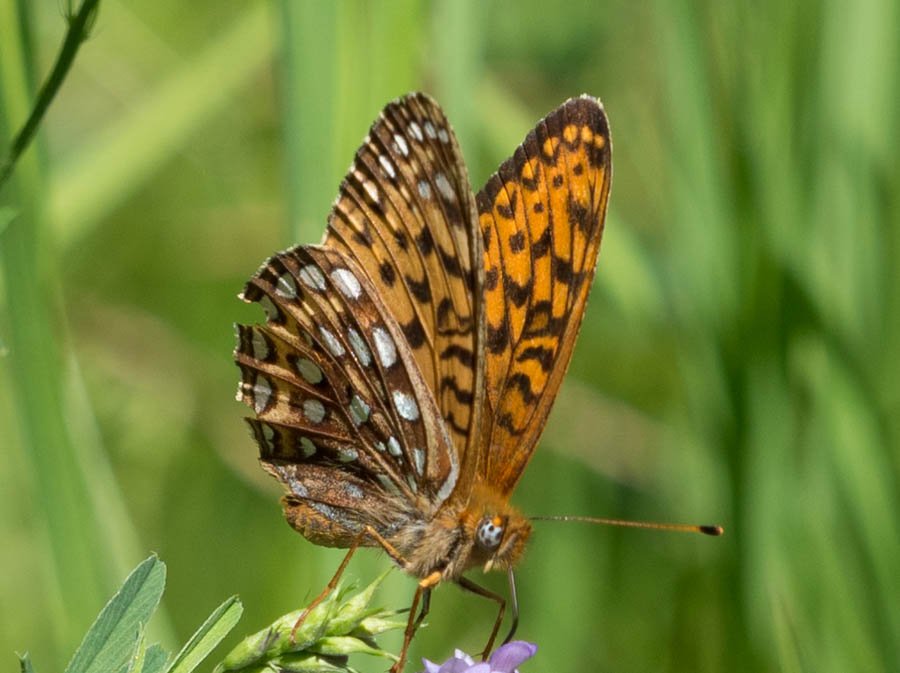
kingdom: Animalia
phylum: Arthropoda
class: Insecta
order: Lepidoptera
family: Nymphalidae
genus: Speyeria
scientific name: Speyeria atlantis
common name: Atlantis Fritillary
